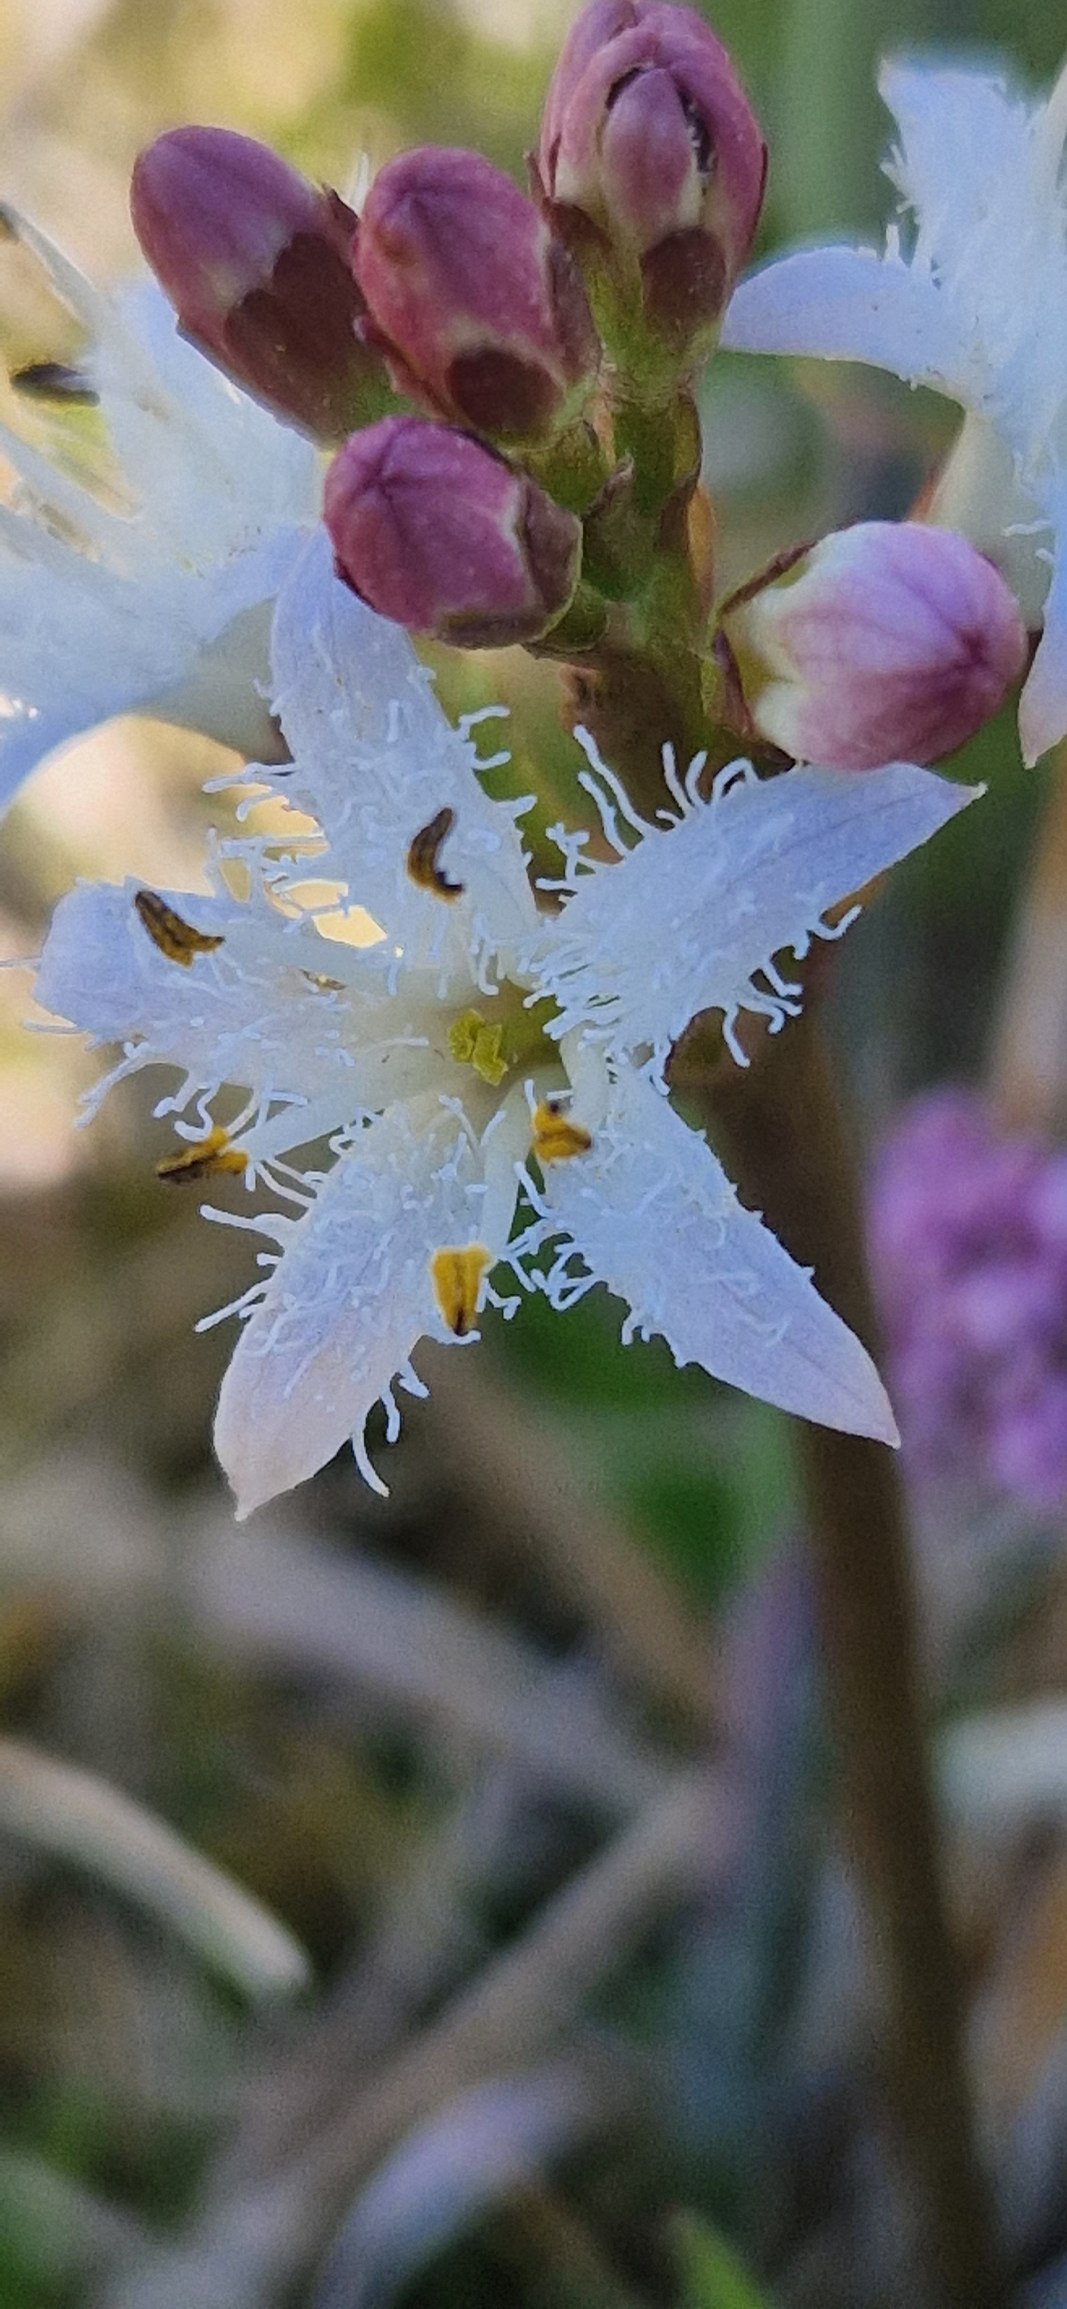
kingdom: Plantae
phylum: Tracheophyta
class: Magnoliopsida
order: Asterales
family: Menyanthaceae
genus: Menyanthes
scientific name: Menyanthes trifoliata
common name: Bukkeblad
